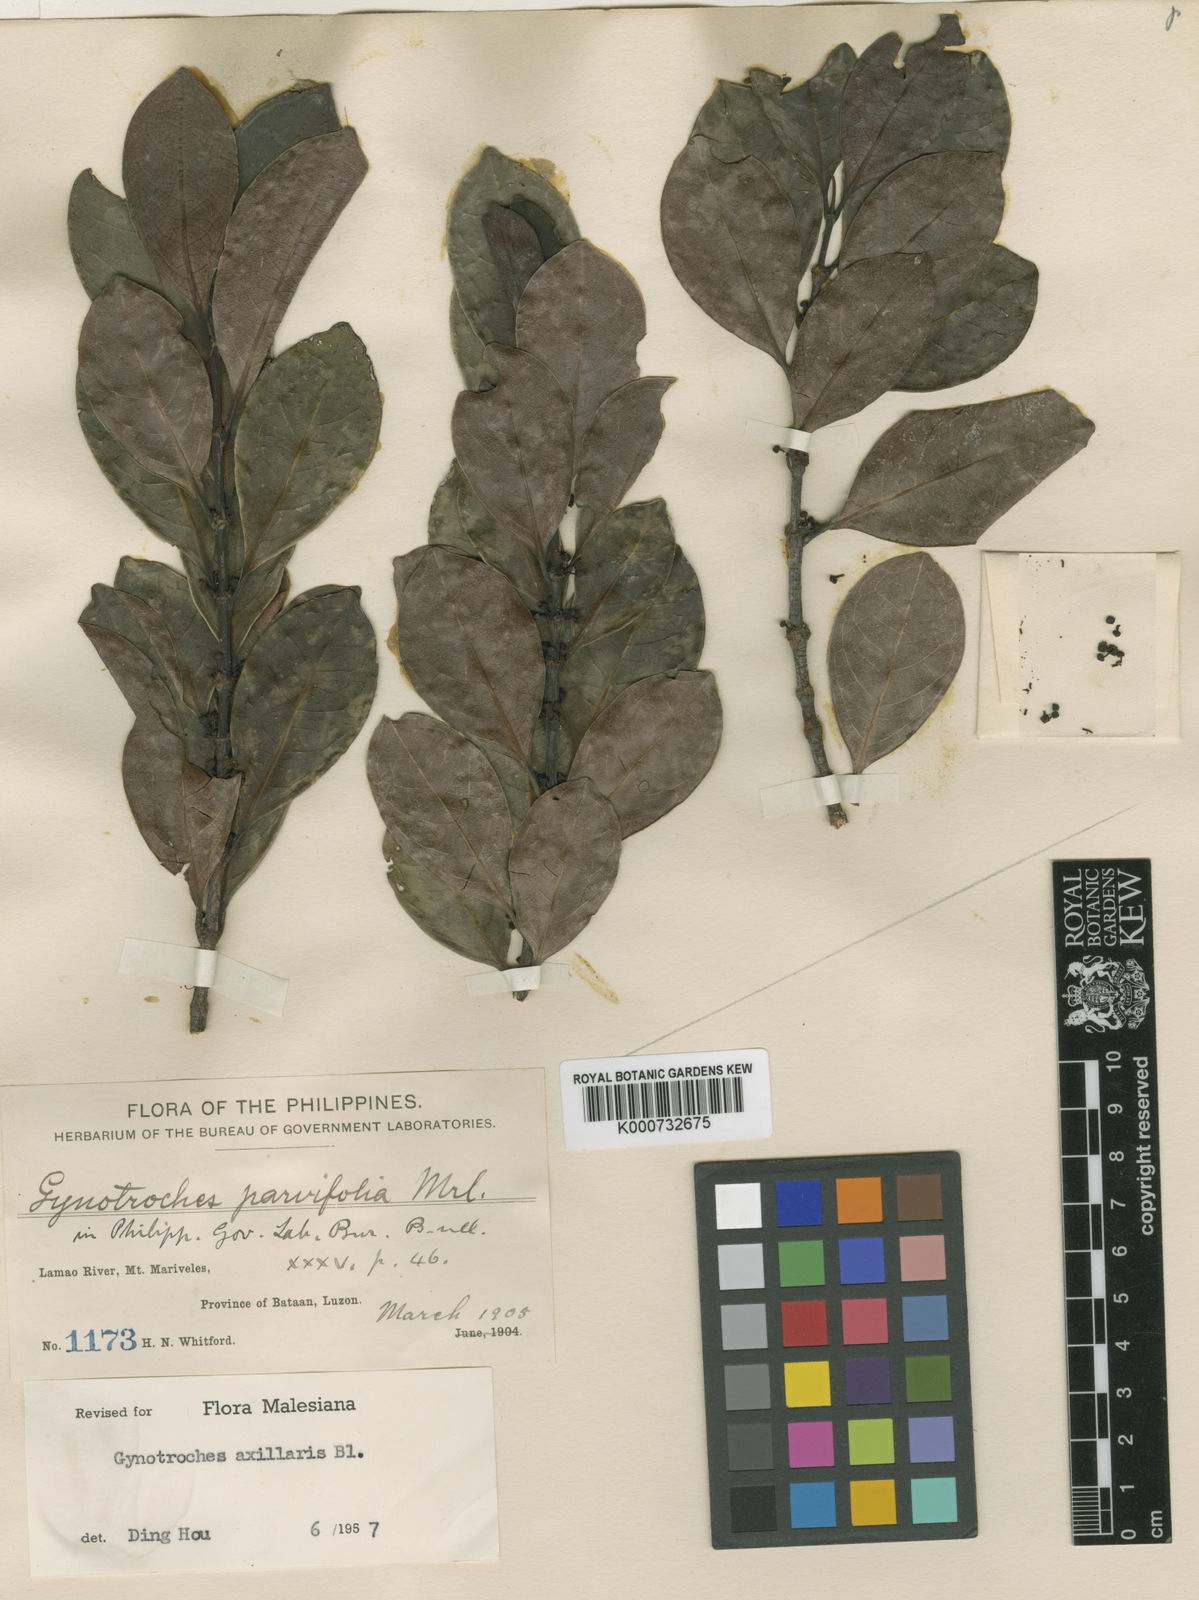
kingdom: Plantae
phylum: Tracheophyta
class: Magnoliopsida
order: Malpighiales
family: Rhizophoraceae
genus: Gynotroches
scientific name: Gynotroches axillaris
